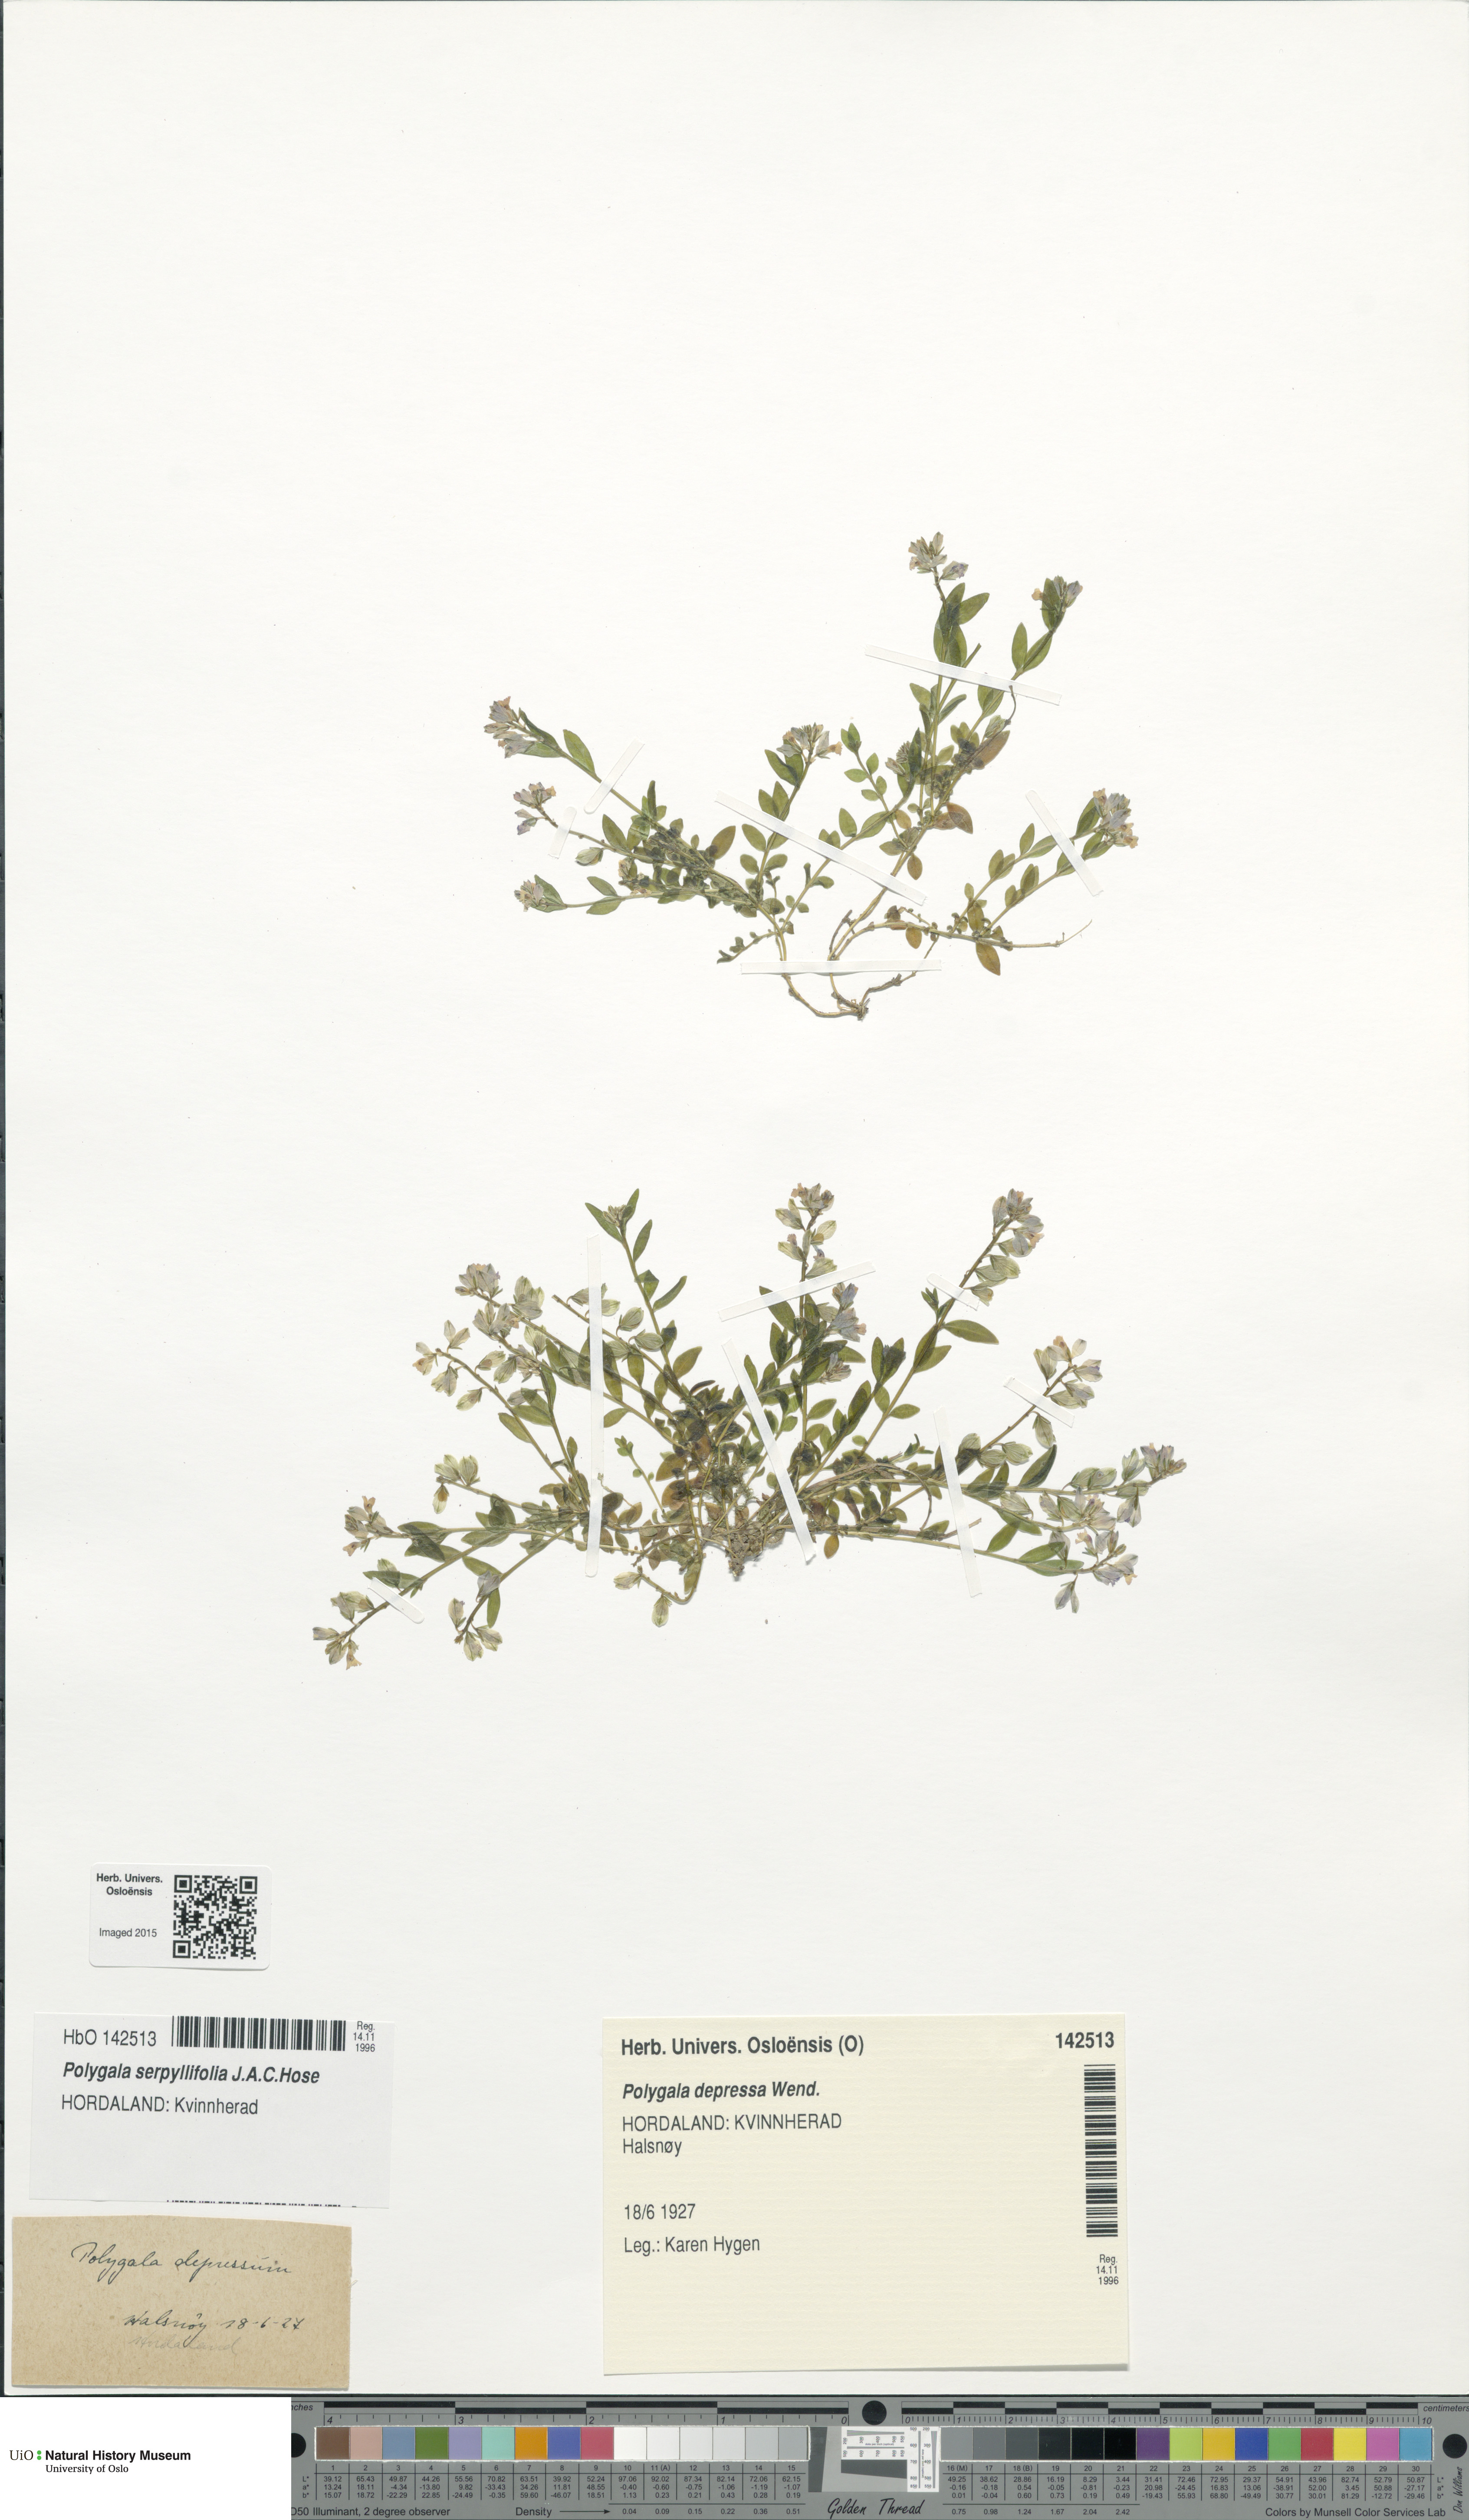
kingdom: Plantae
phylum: Tracheophyta
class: Magnoliopsida
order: Fabales
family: Polygalaceae
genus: Polygala
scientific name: Polygala serpyllifolia
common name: Heath milkwort
